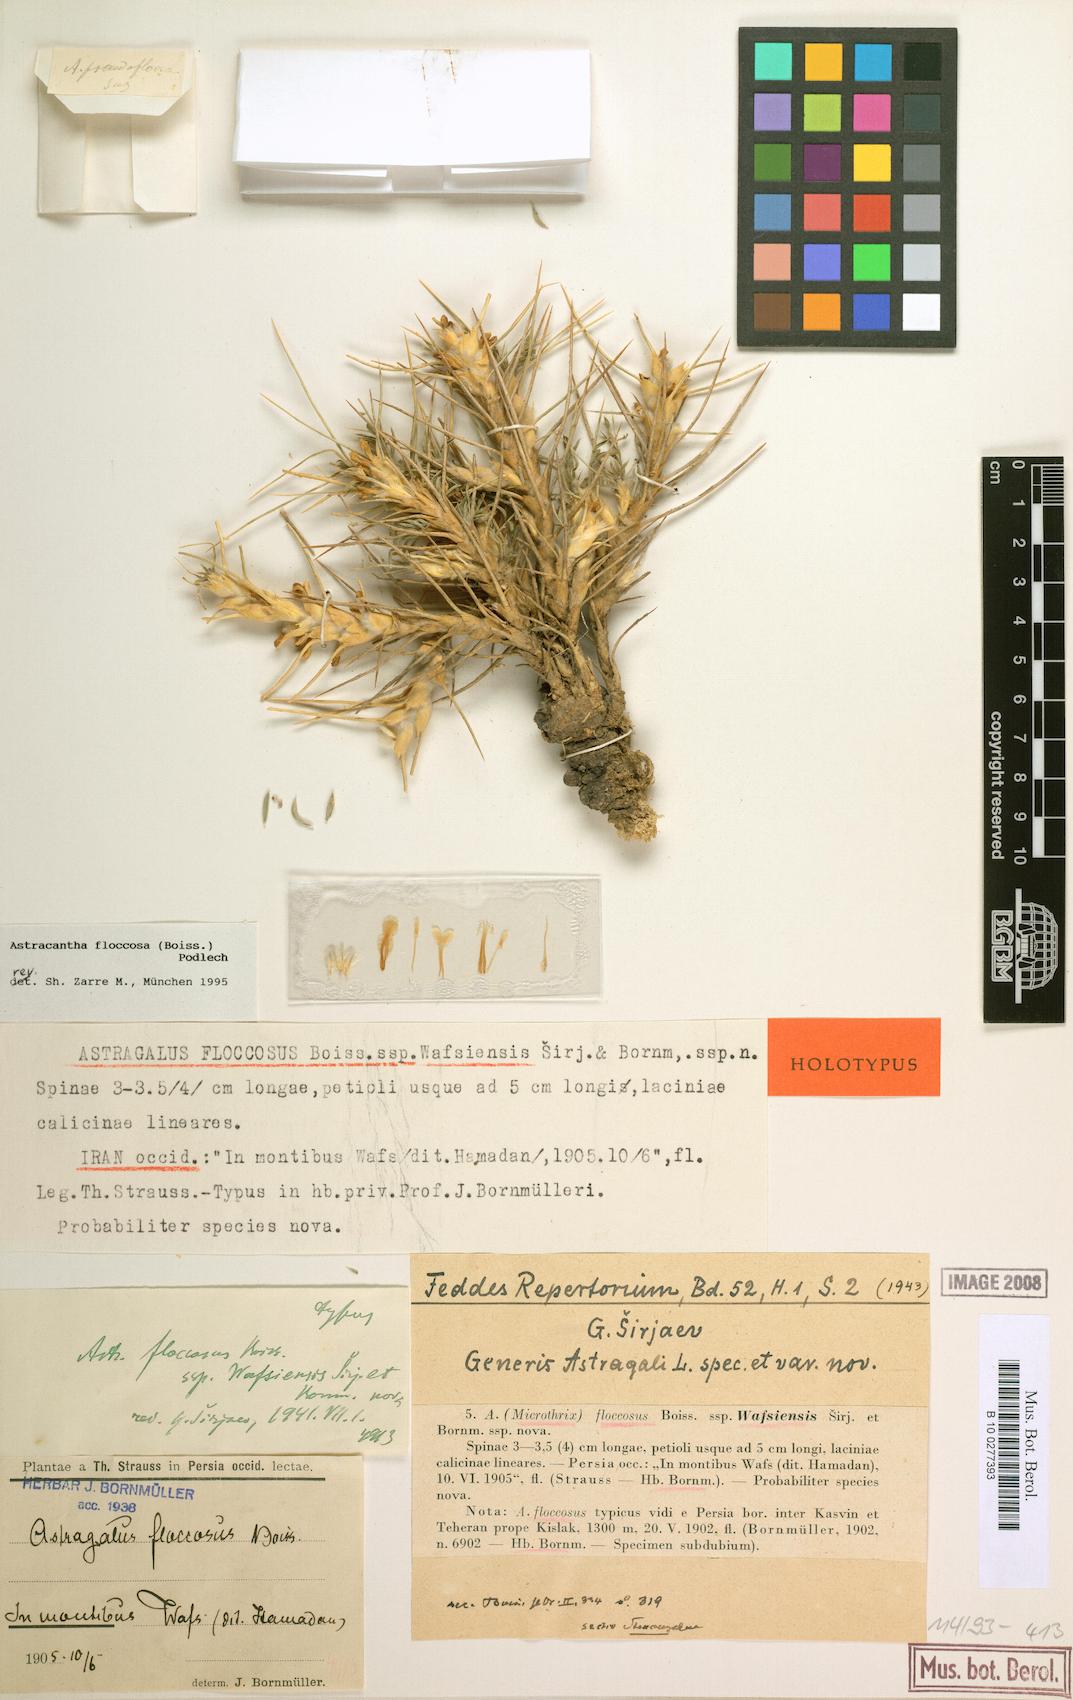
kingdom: Plantae
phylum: Tracheophyta
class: Magnoliopsida
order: Fabales
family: Fabaceae
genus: Astragalus
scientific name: Astragalus floccosus
